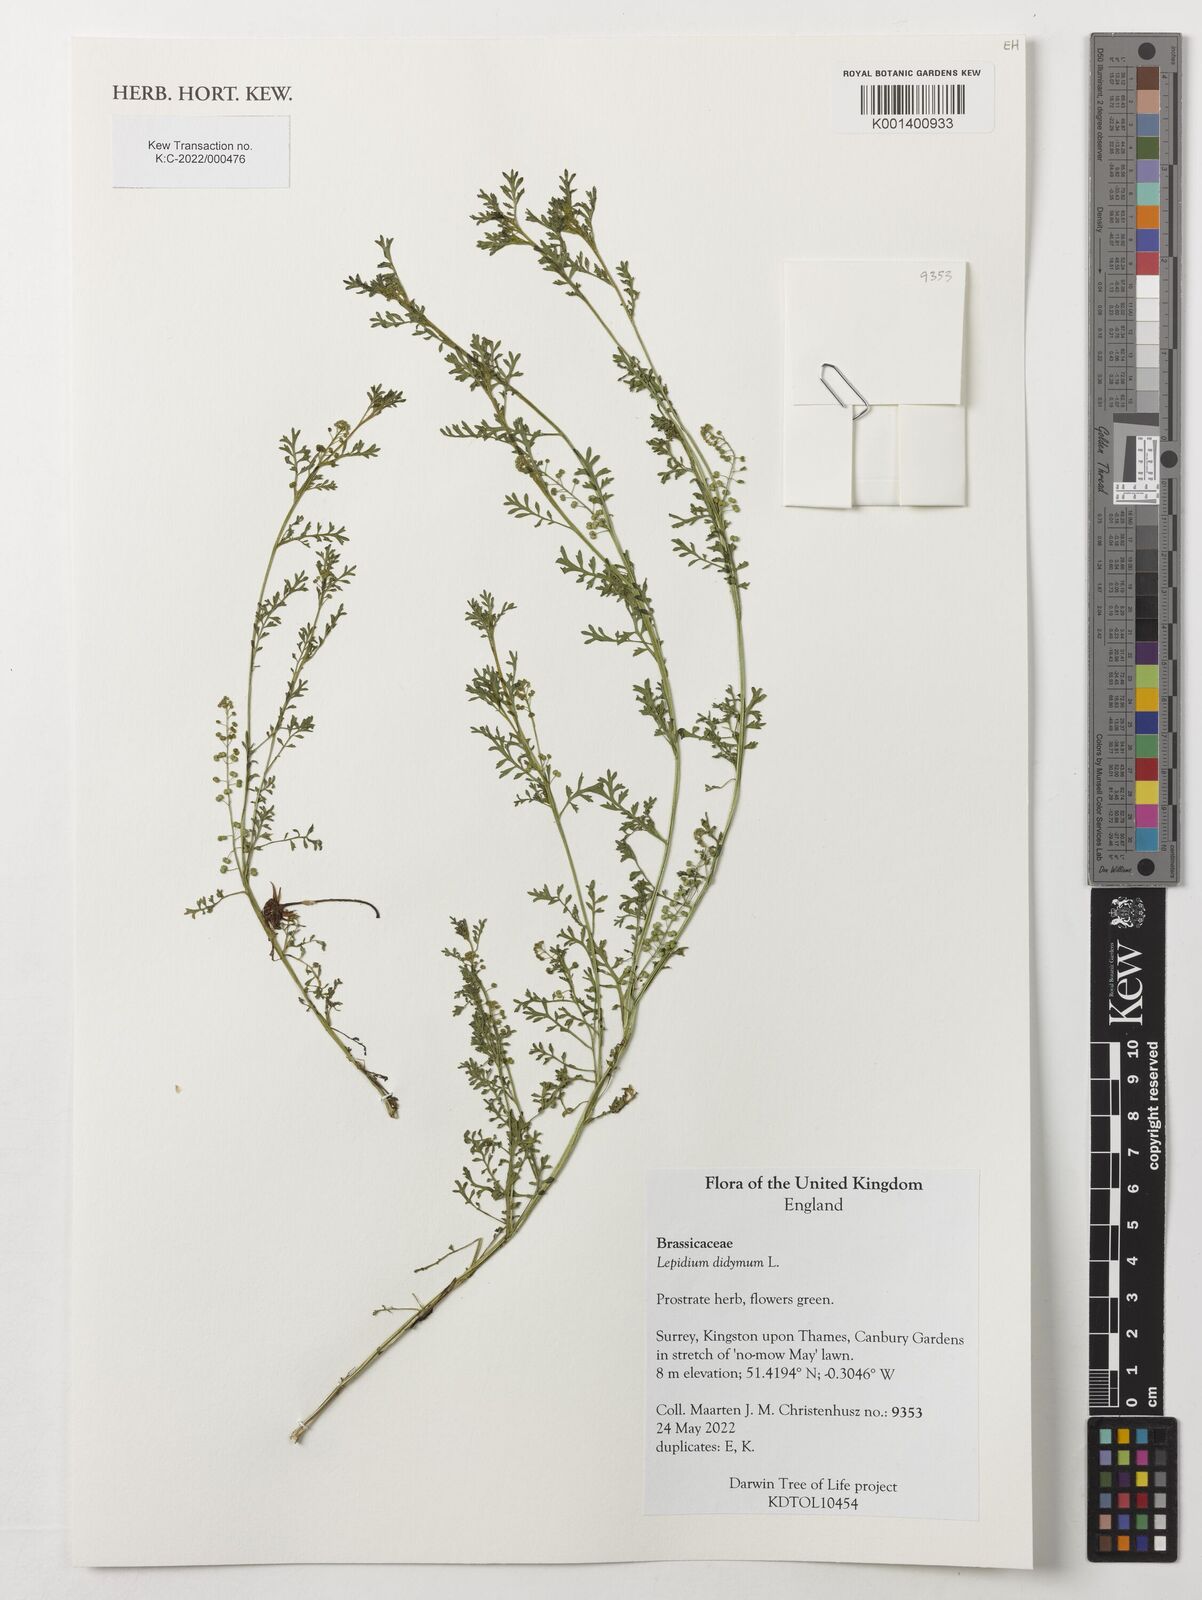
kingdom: Plantae
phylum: Tracheophyta
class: Magnoliopsida
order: Brassicales
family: Brassicaceae
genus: Lepidium
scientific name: Lepidium didymum
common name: Lesser swinecress
